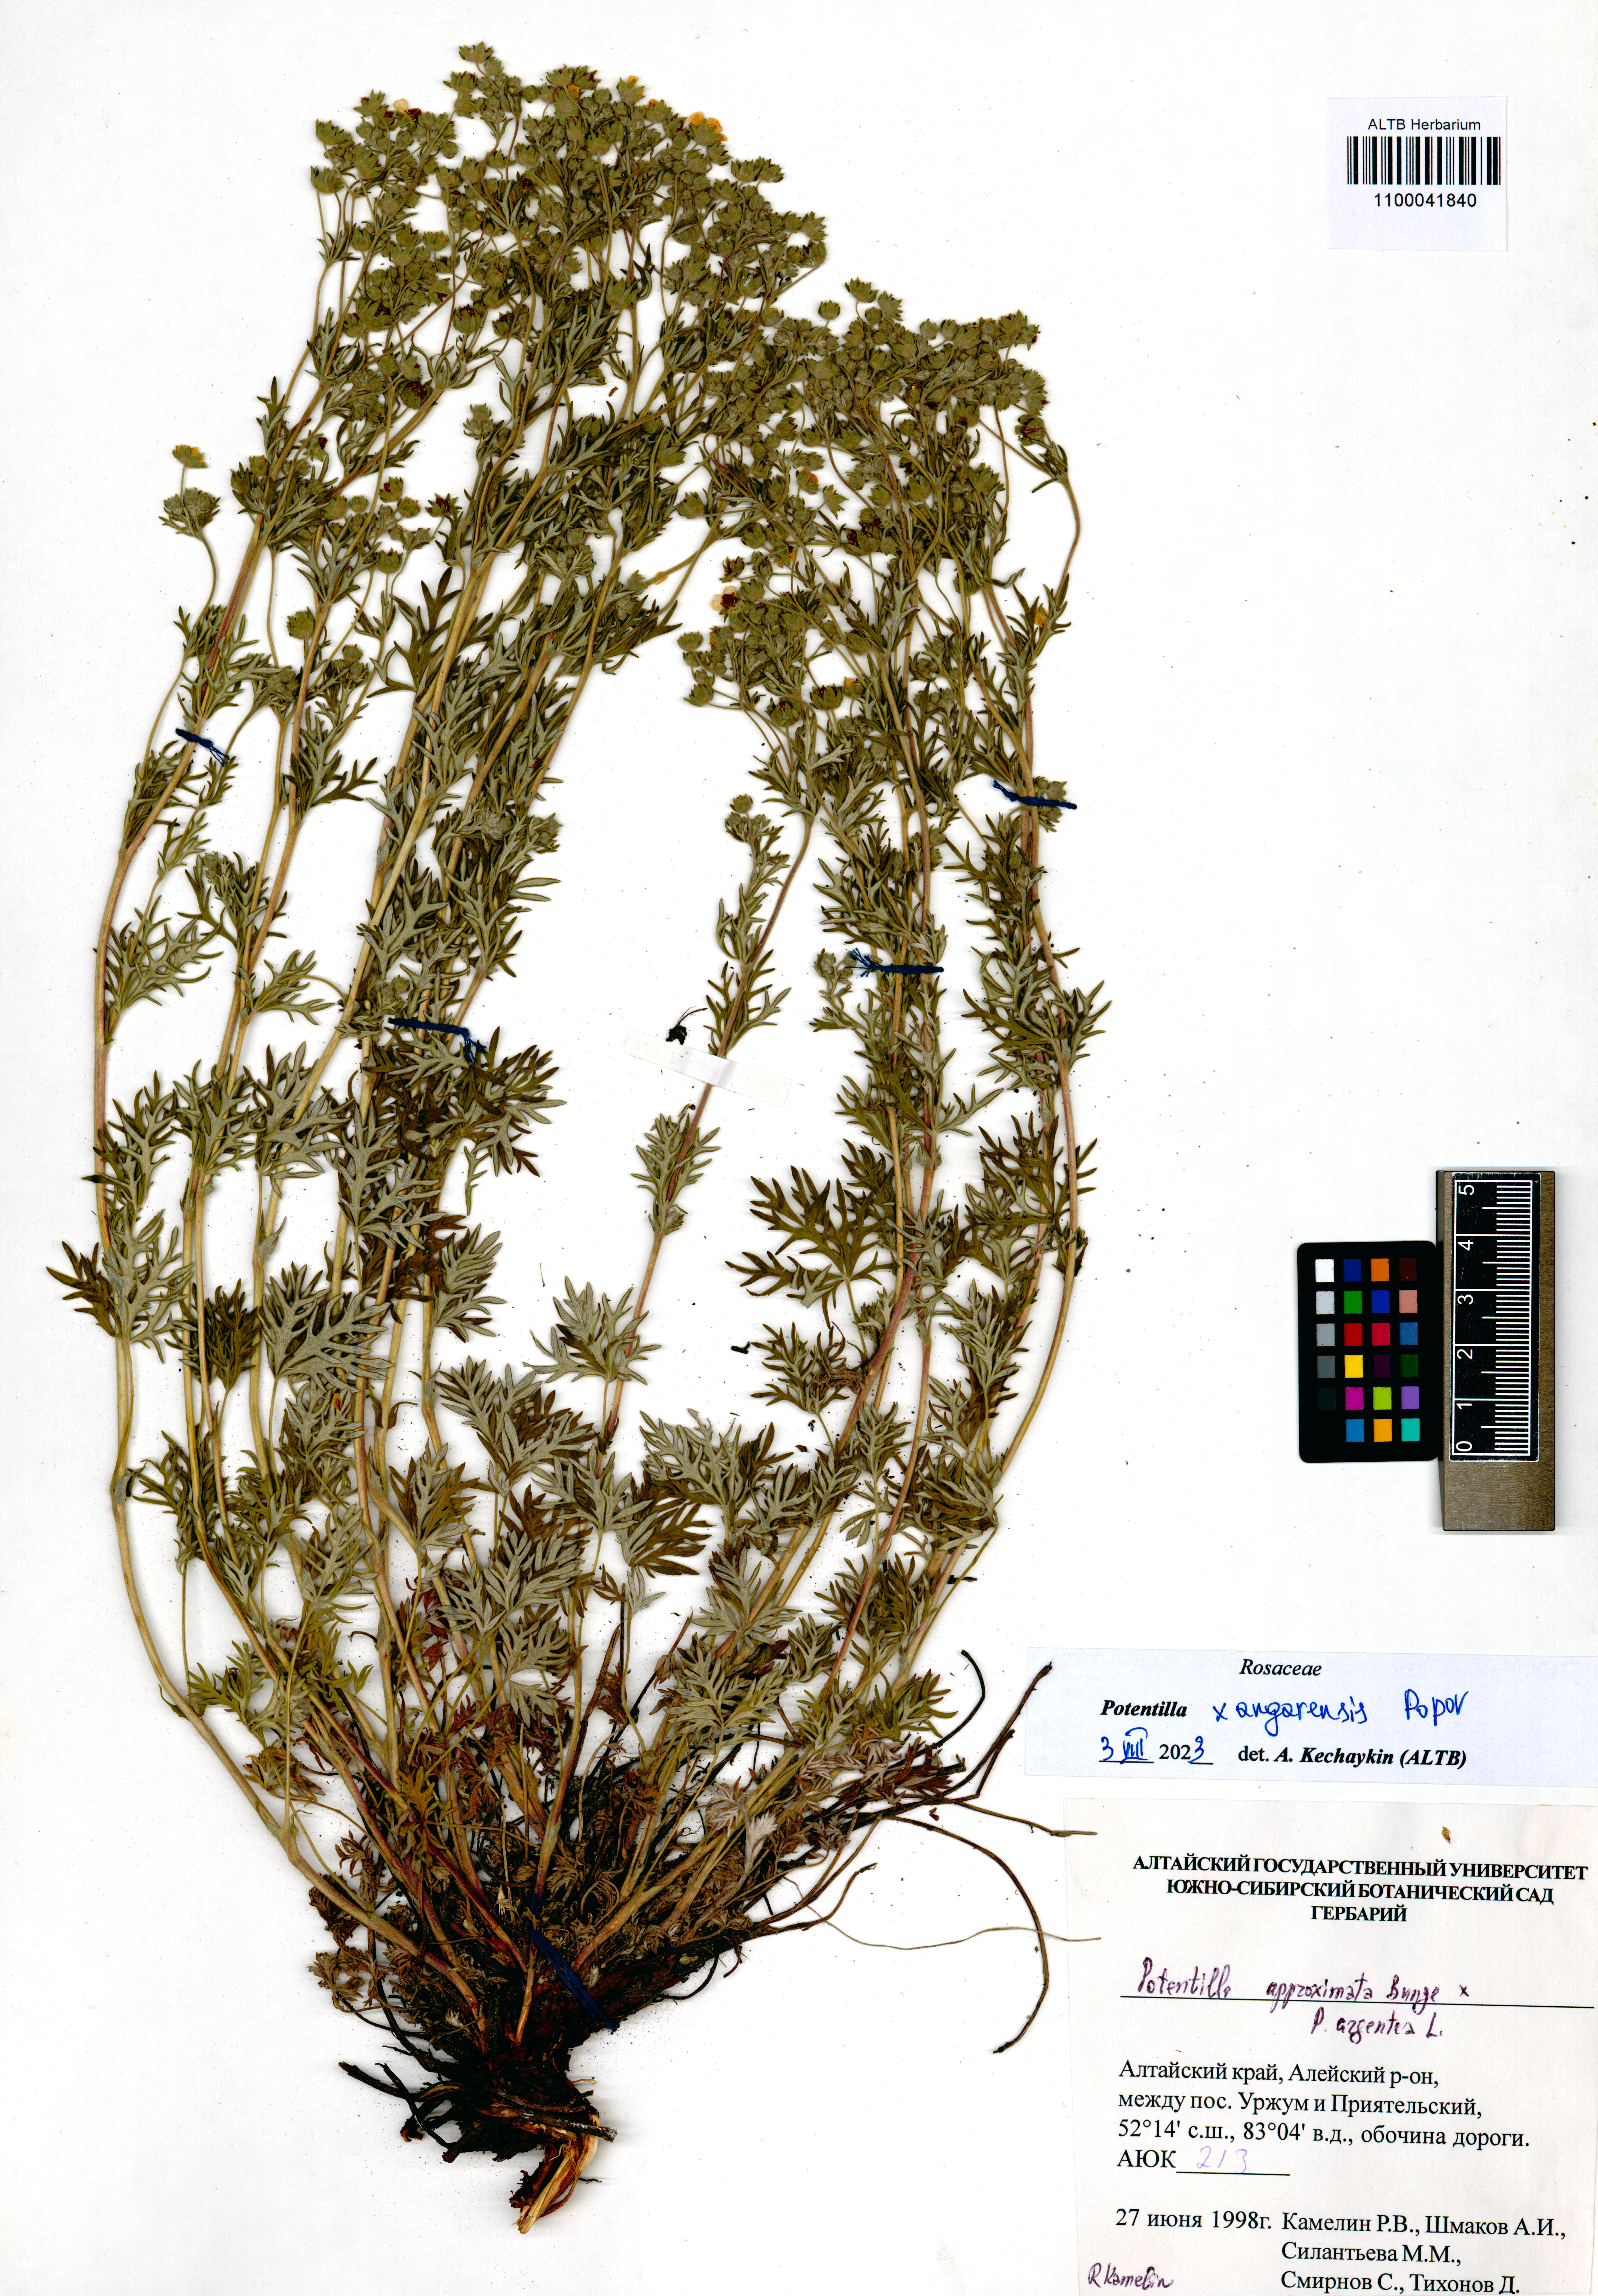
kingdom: Plantae
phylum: Tracheophyta
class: Magnoliopsida
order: Rosales
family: Rosaceae
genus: Potentilla
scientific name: Potentilla angarensis
